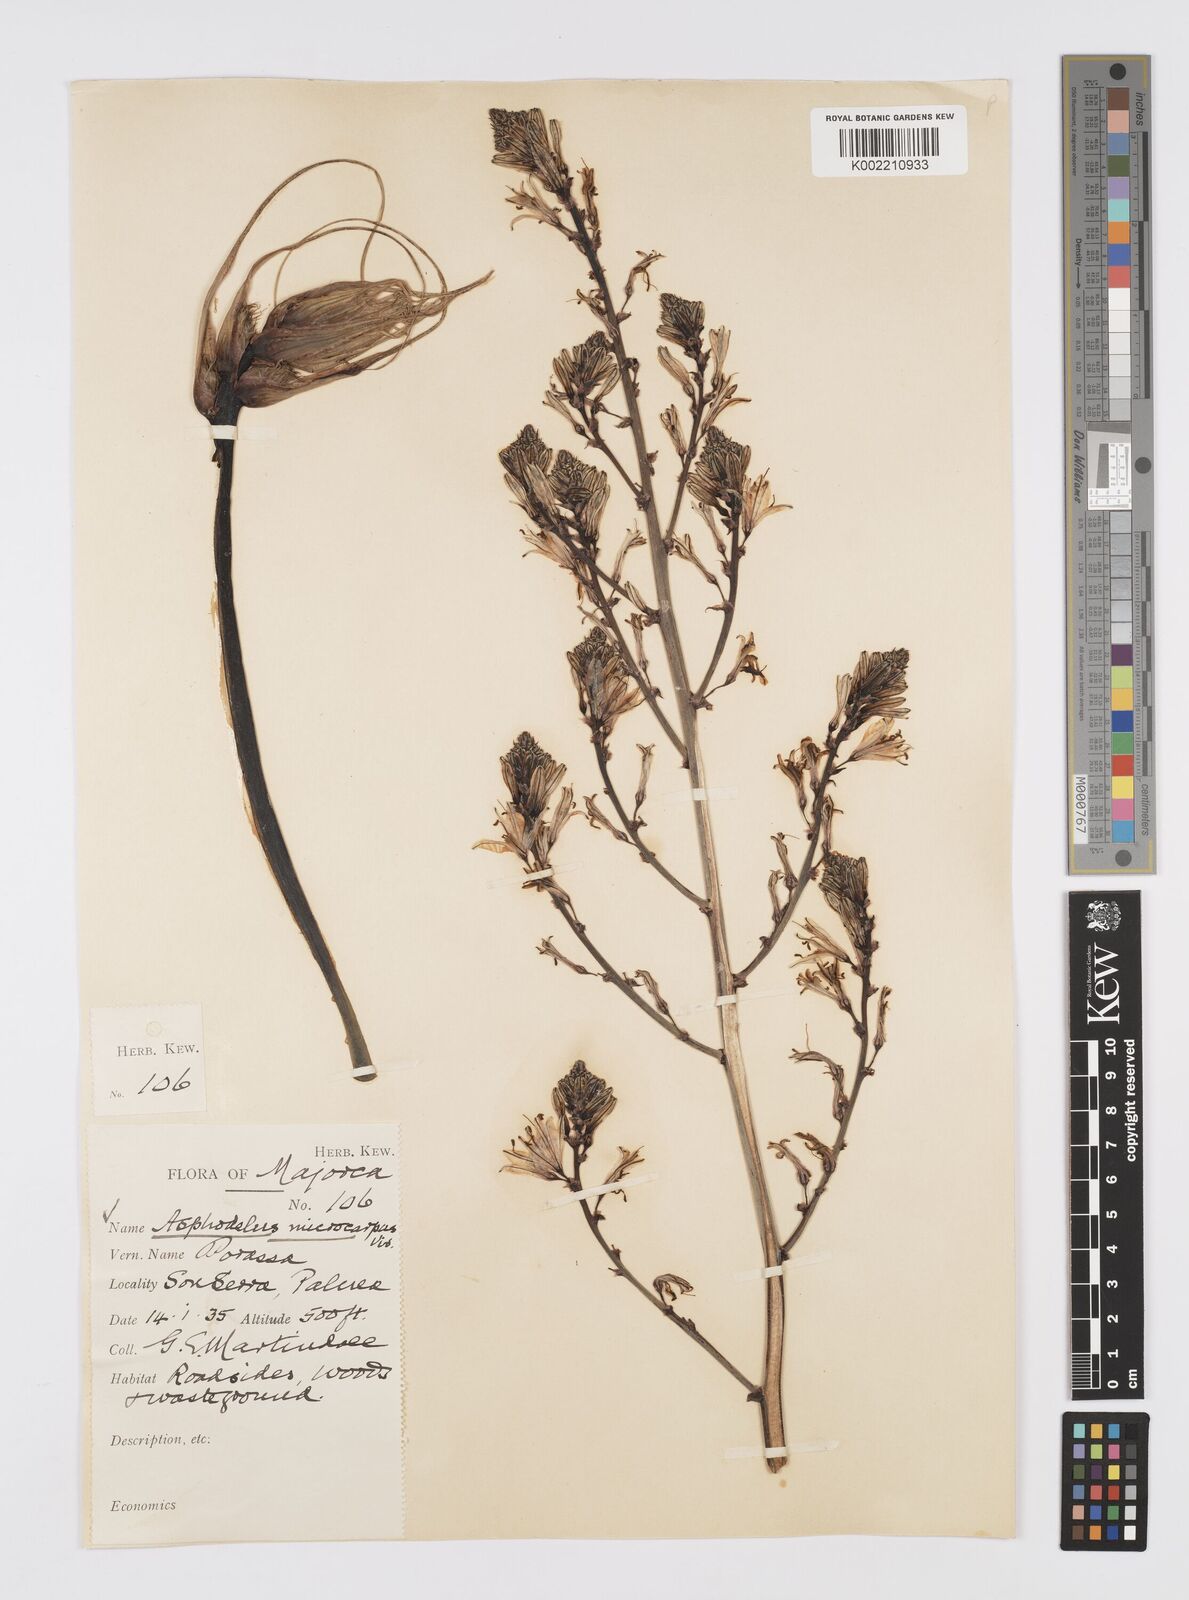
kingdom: Plantae
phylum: Tracheophyta
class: Liliopsida
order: Asparagales
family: Asphodelaceae
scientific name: Asphodelaceae
